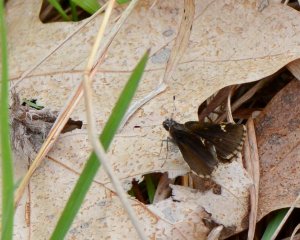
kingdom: Animalia
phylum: Arthropoda
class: Insecta
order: Lepidoptera
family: Hesperiidae
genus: Mastor
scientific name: Mastor vialis
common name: Common Roadside-Skipper
